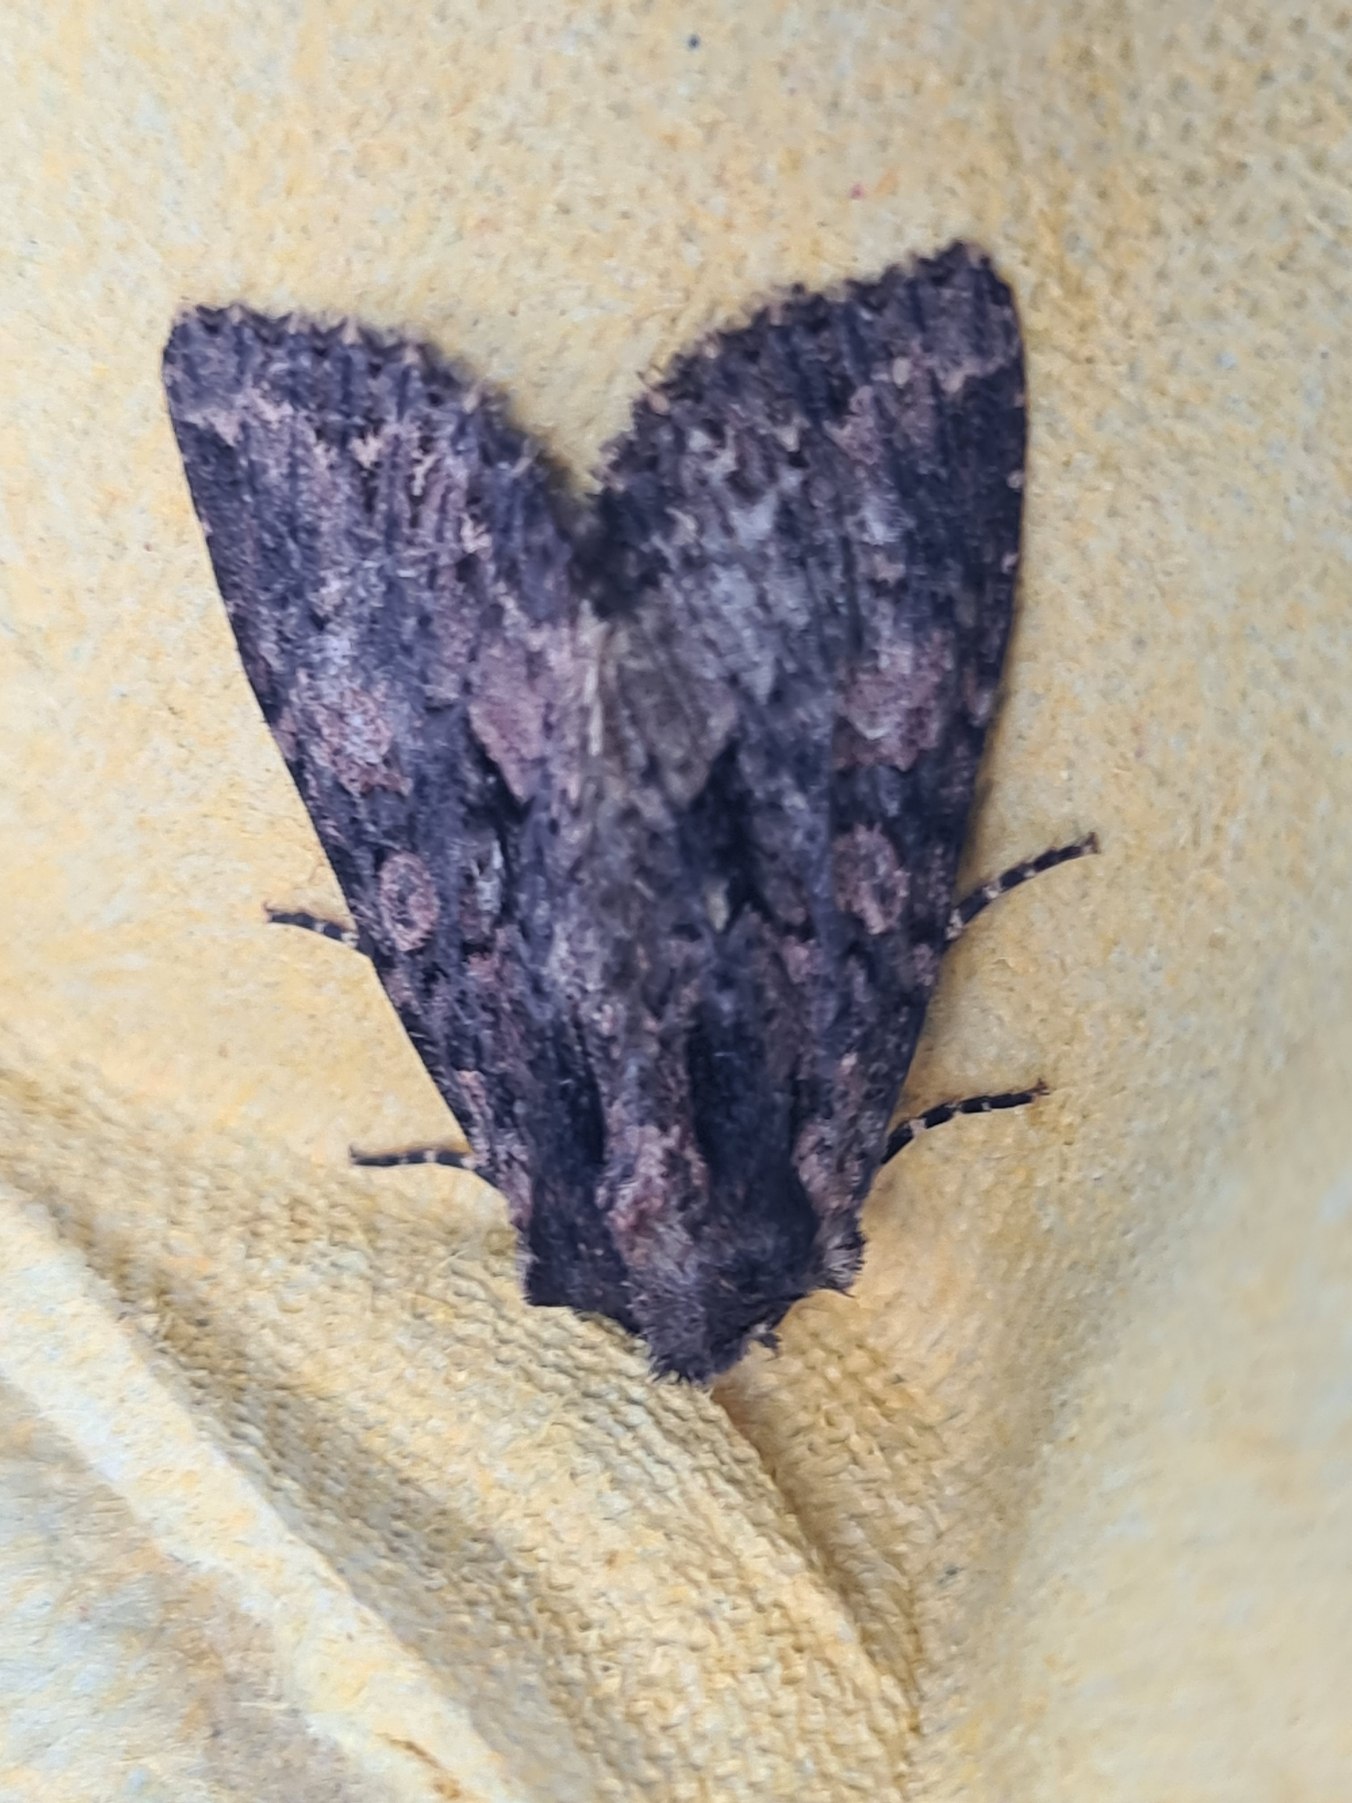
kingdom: Animalia
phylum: Arthropoda
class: Insecta
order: Lepidoptera
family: Noctuidae
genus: Mniotype
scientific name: Mniotype satura
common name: August-mosugle
